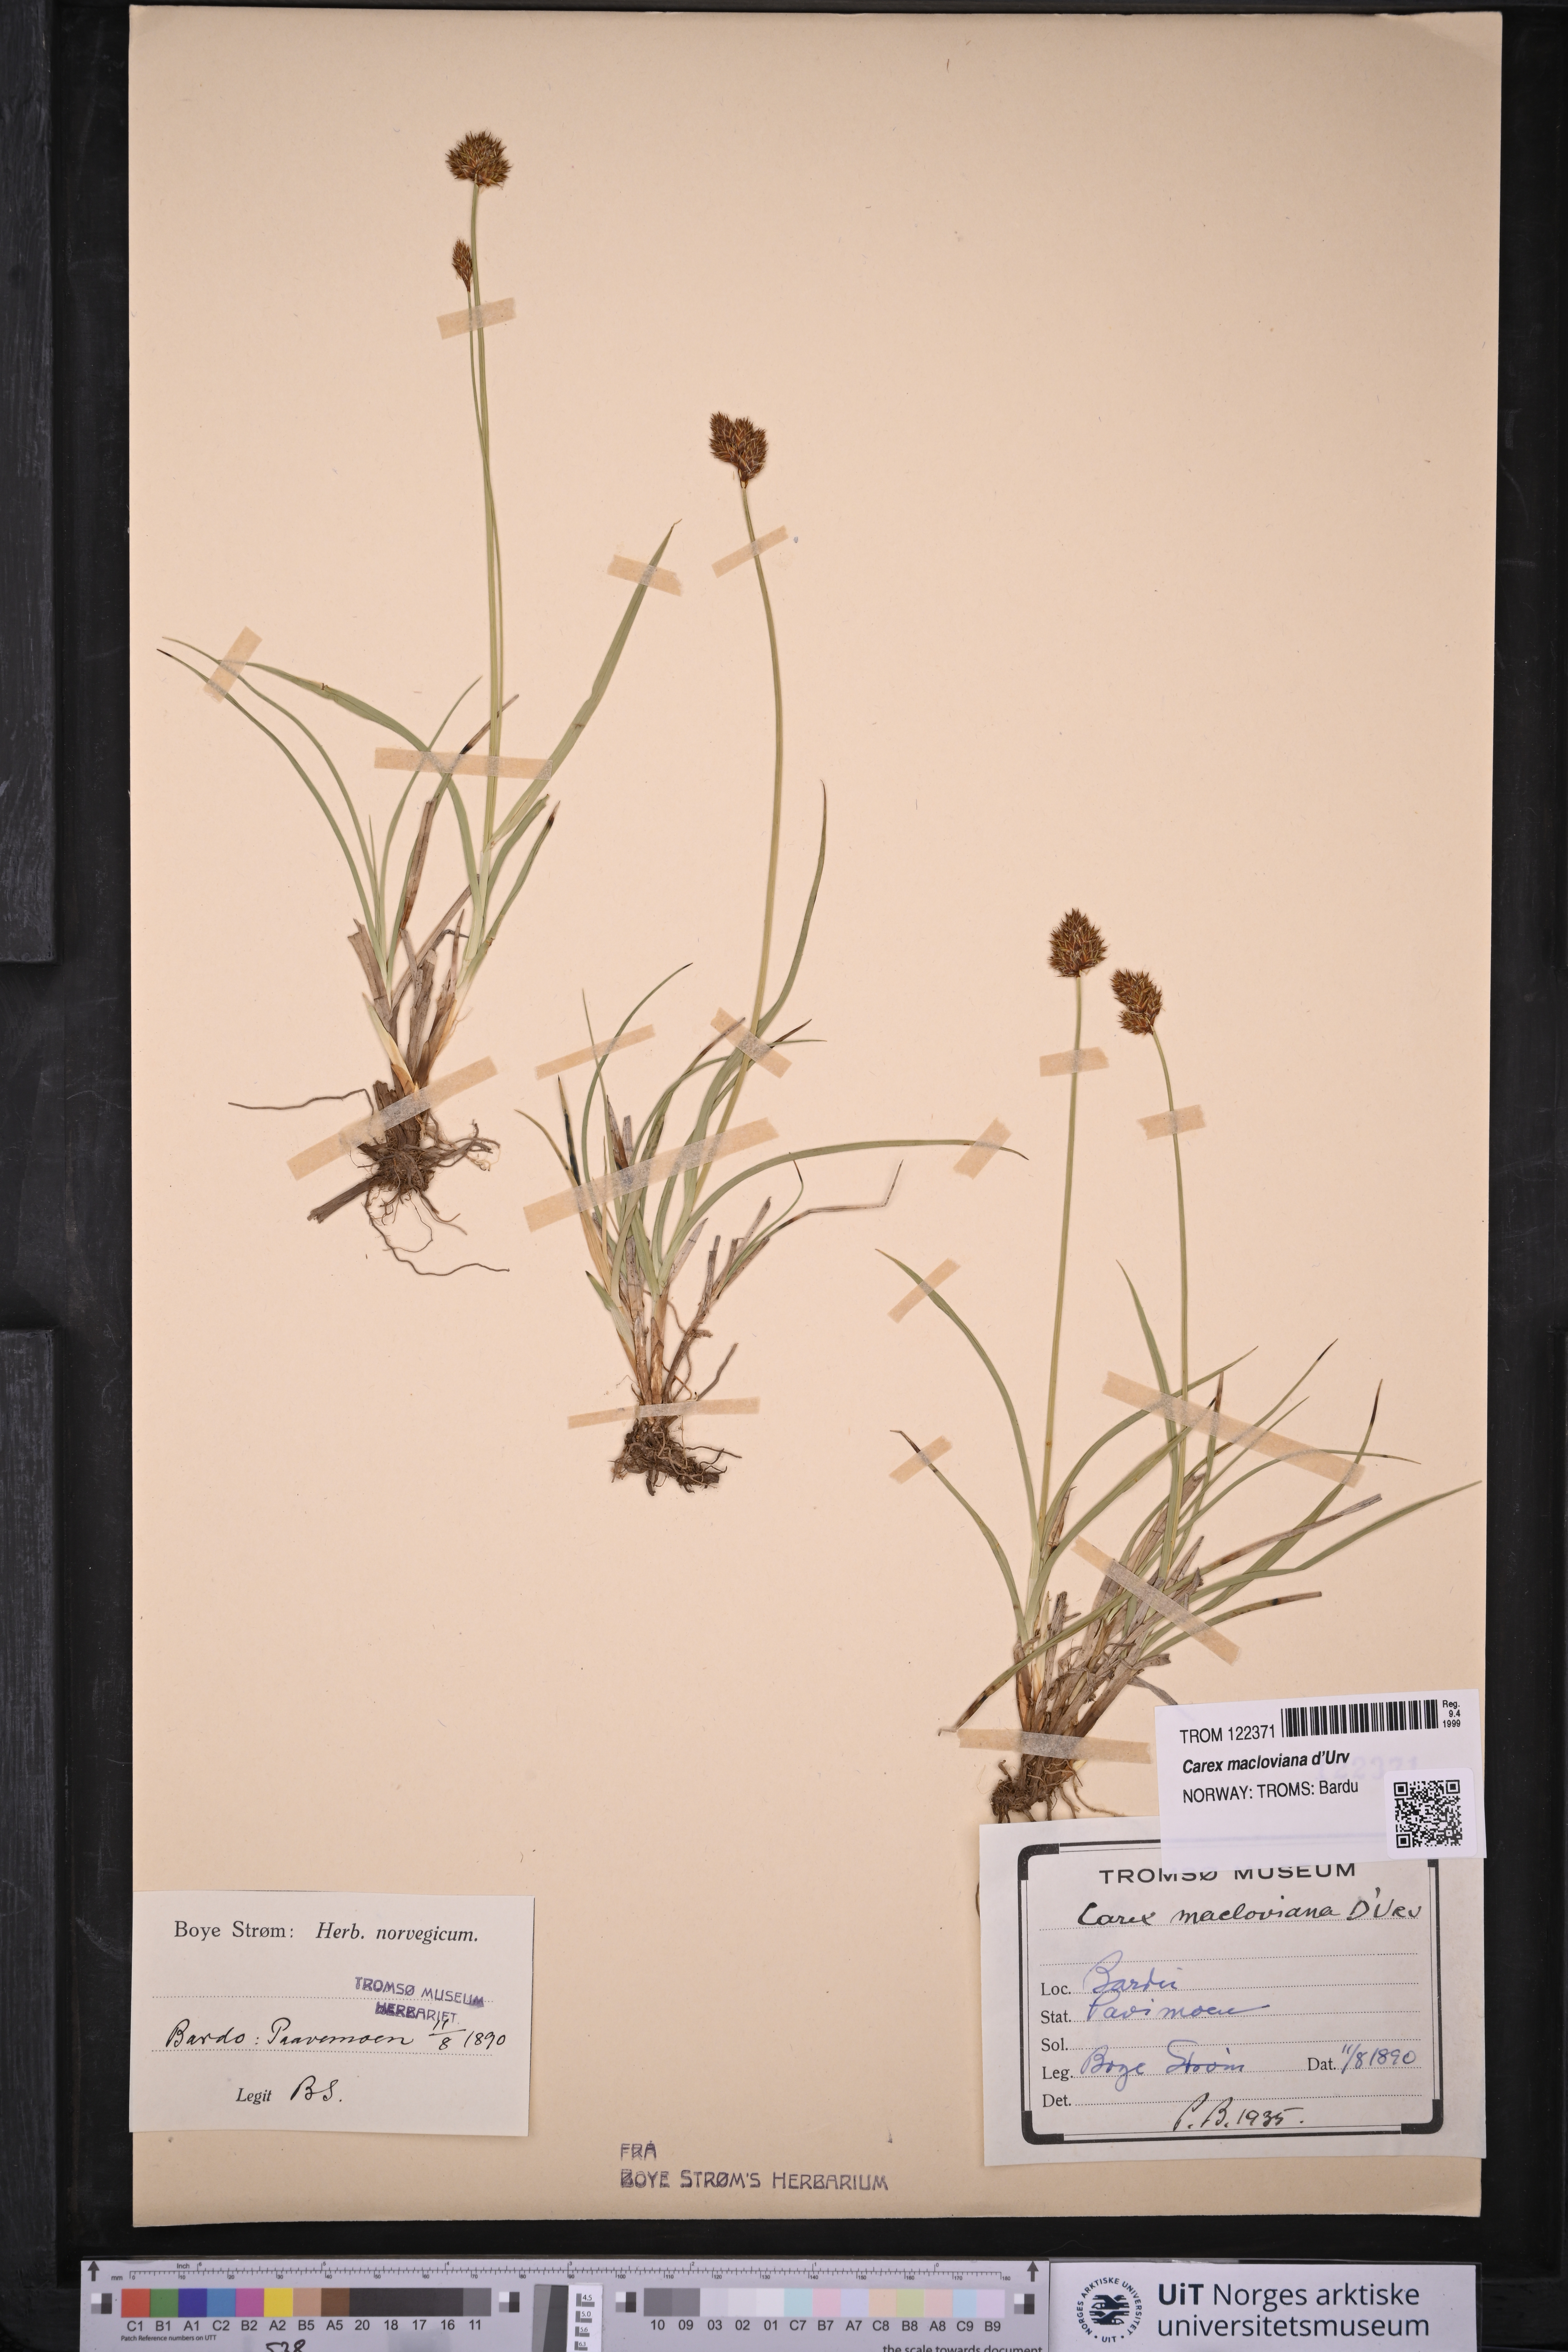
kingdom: Plantae
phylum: Tracheophyta
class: Liliopsida
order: Poales
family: Cyperaceae
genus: Carex
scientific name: Carex macloviana
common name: Falkland island sedge
